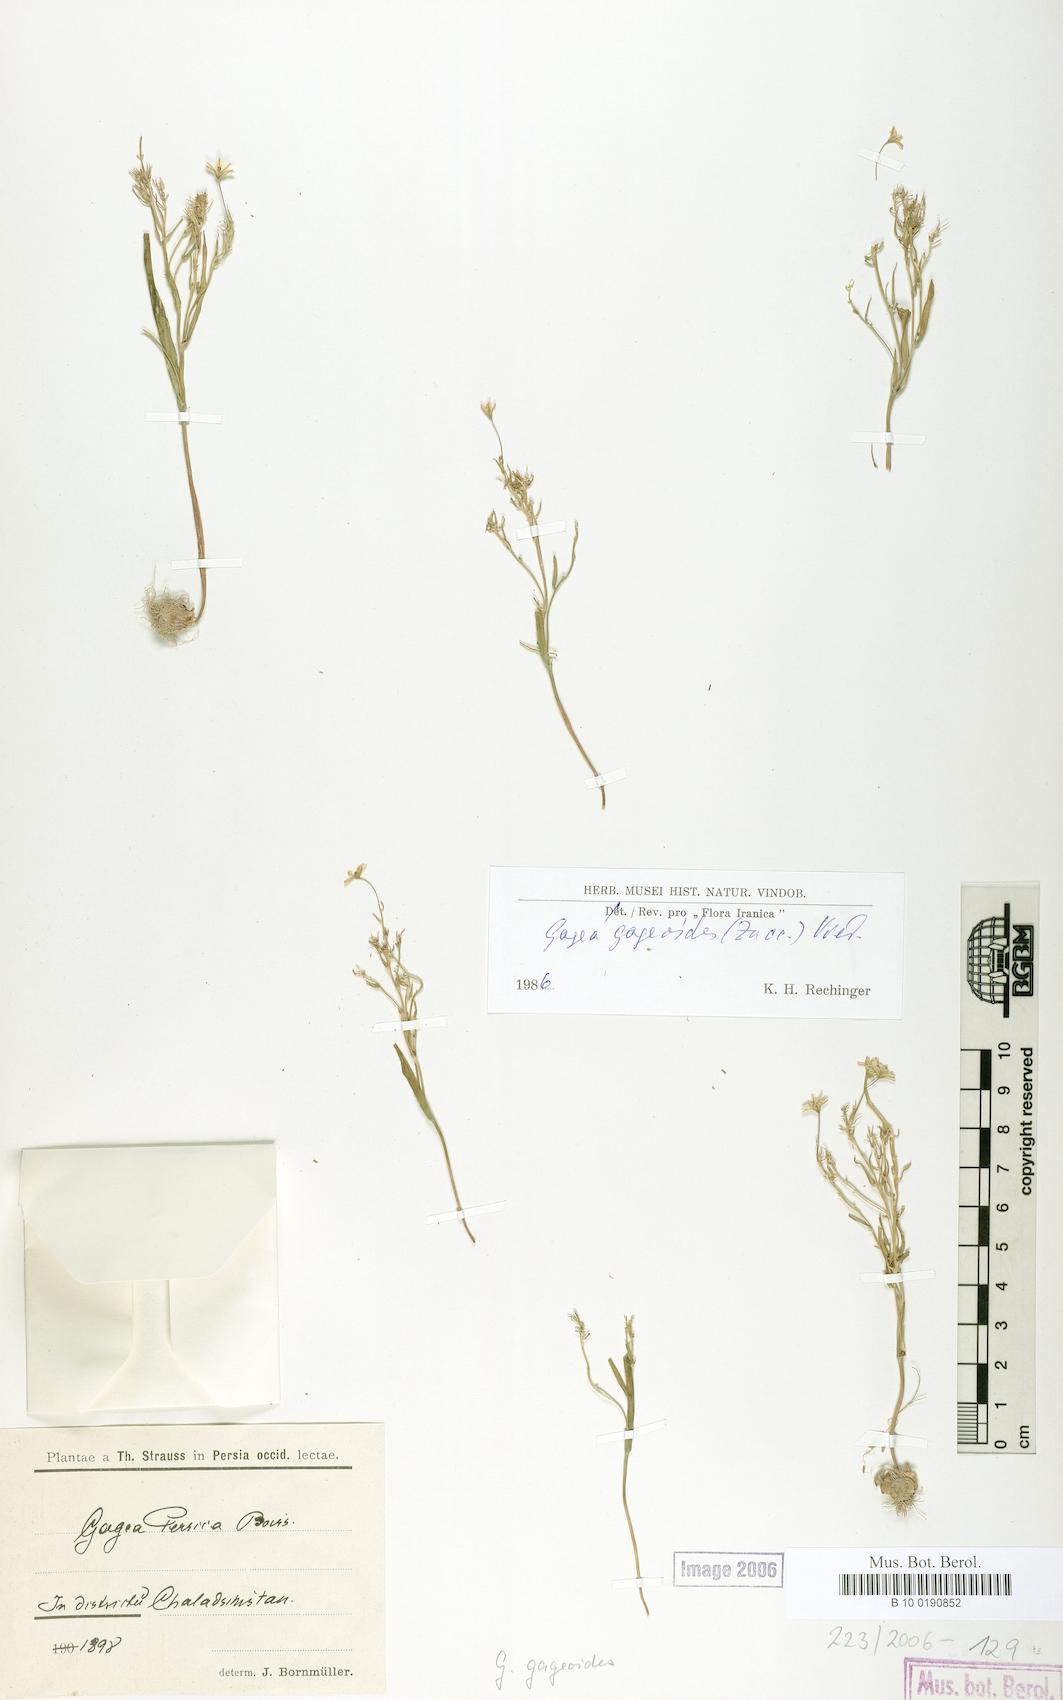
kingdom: Plantae
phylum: Tracheophyta
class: Liliopsida
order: Liliales
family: Liliaceae
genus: Gagea
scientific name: Gagea gageoides
